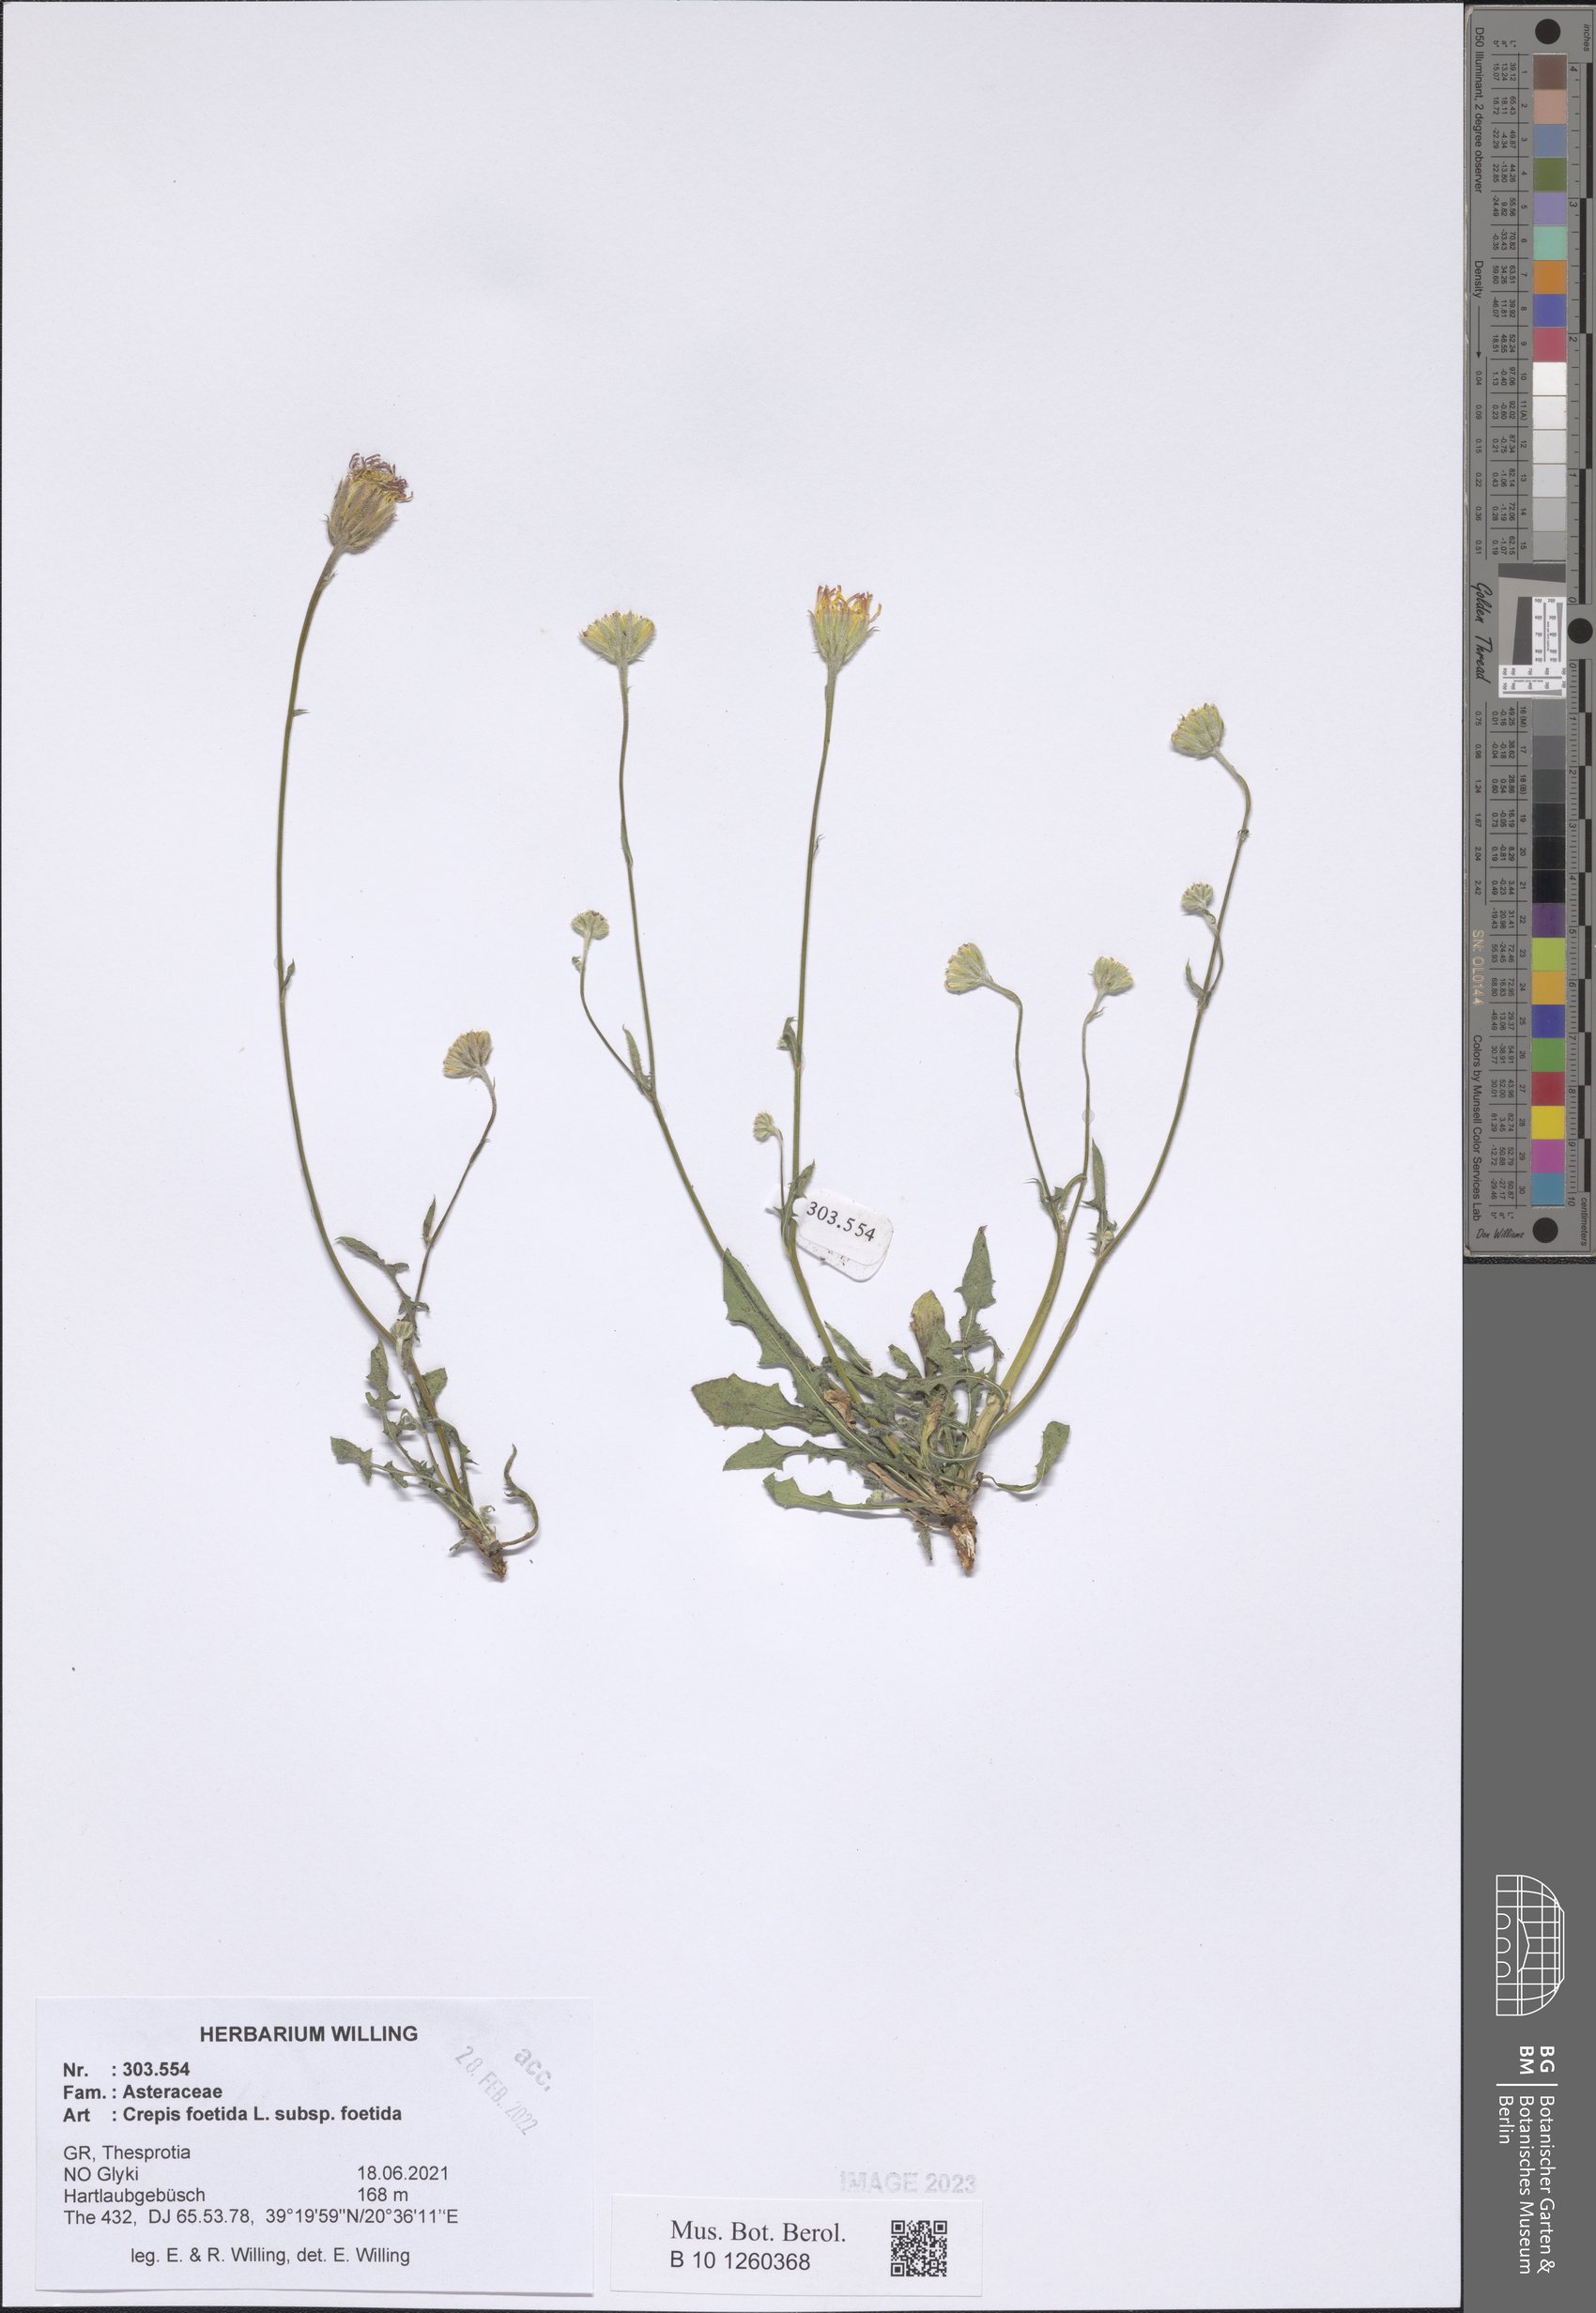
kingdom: Plantae
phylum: Tracheophyta
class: Magnoliopsida
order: Asterales
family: Asteraceae
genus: Crepis
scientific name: Crepis foetida
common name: Stinking hawk's-beard
